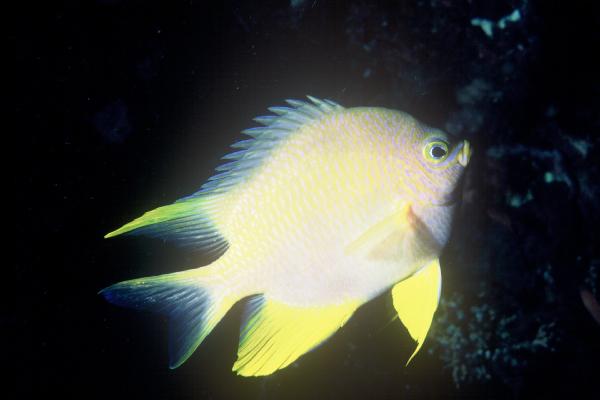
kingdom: Animalia
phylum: Chordata
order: Perciformes
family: Pomacentridae
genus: Amblyglyphidodon
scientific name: Amblyglyphidodon aureus
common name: Golden damsel
